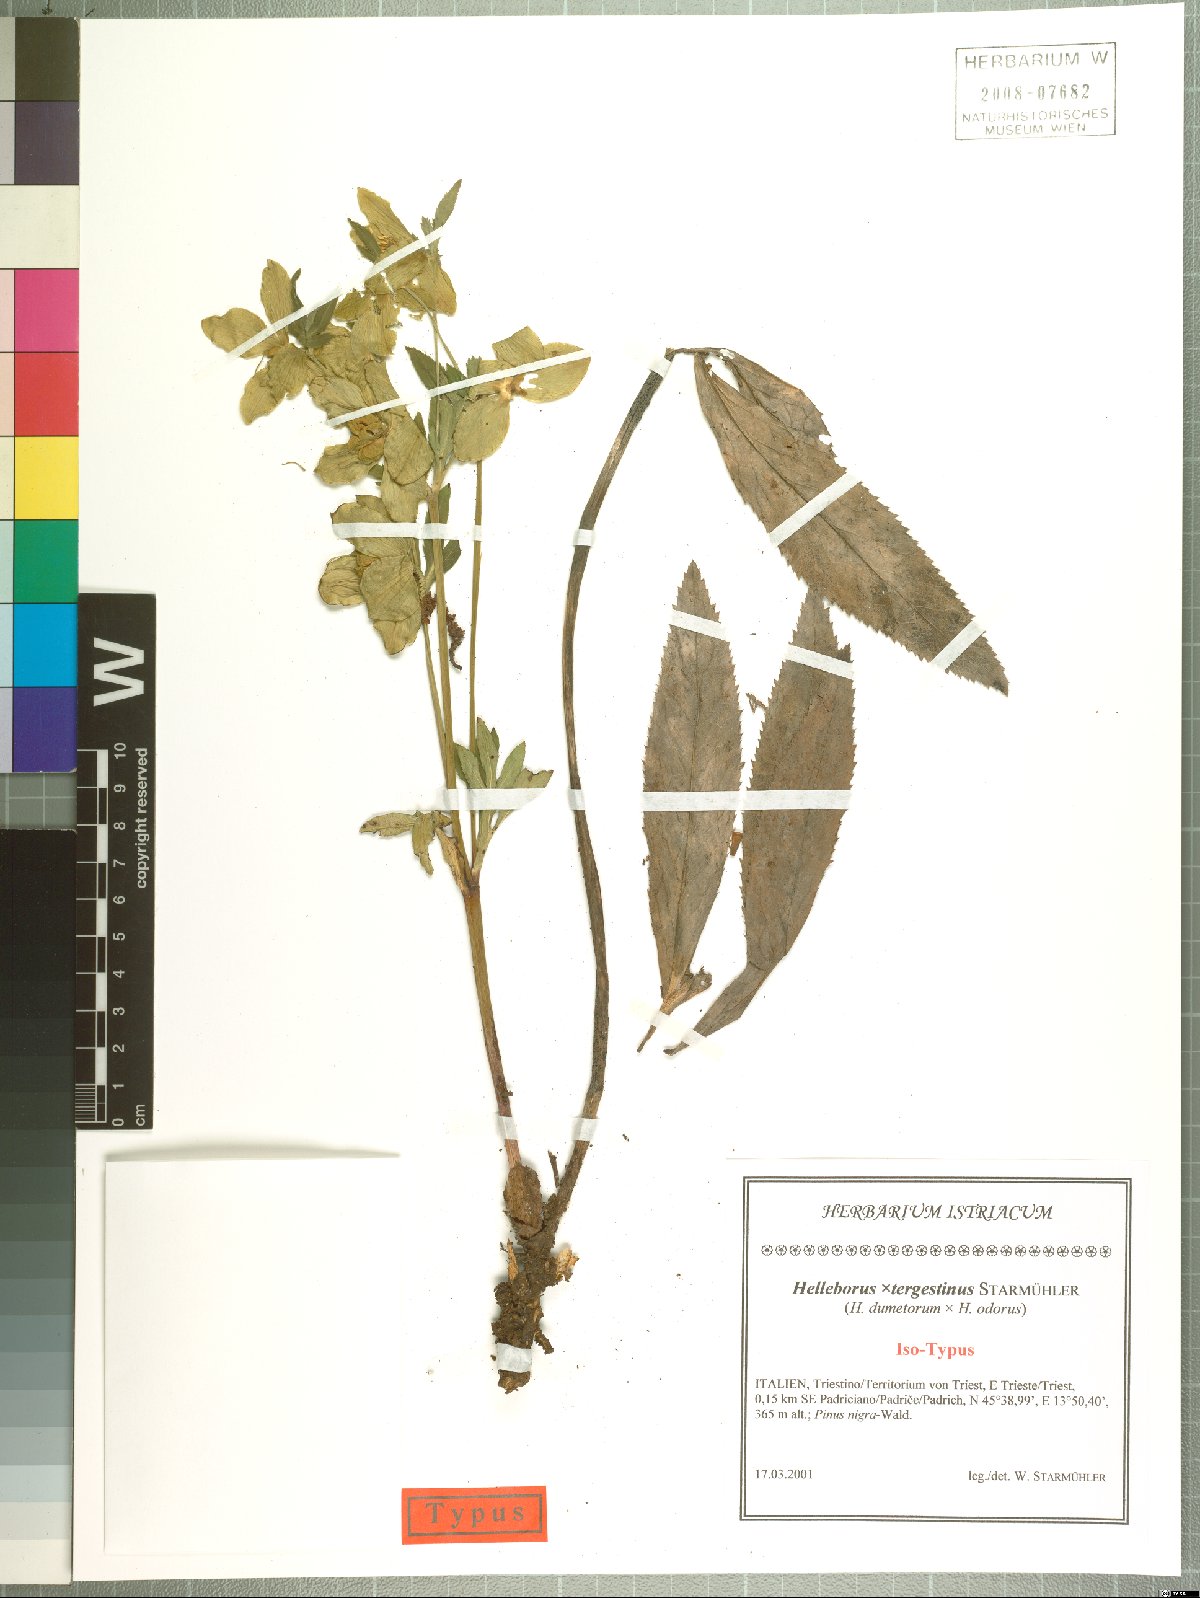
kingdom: Plantae
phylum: Tracheophyta
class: Magnoliopsida
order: Ranunculales
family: Ranunculaceae
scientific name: Ranunculaceae
